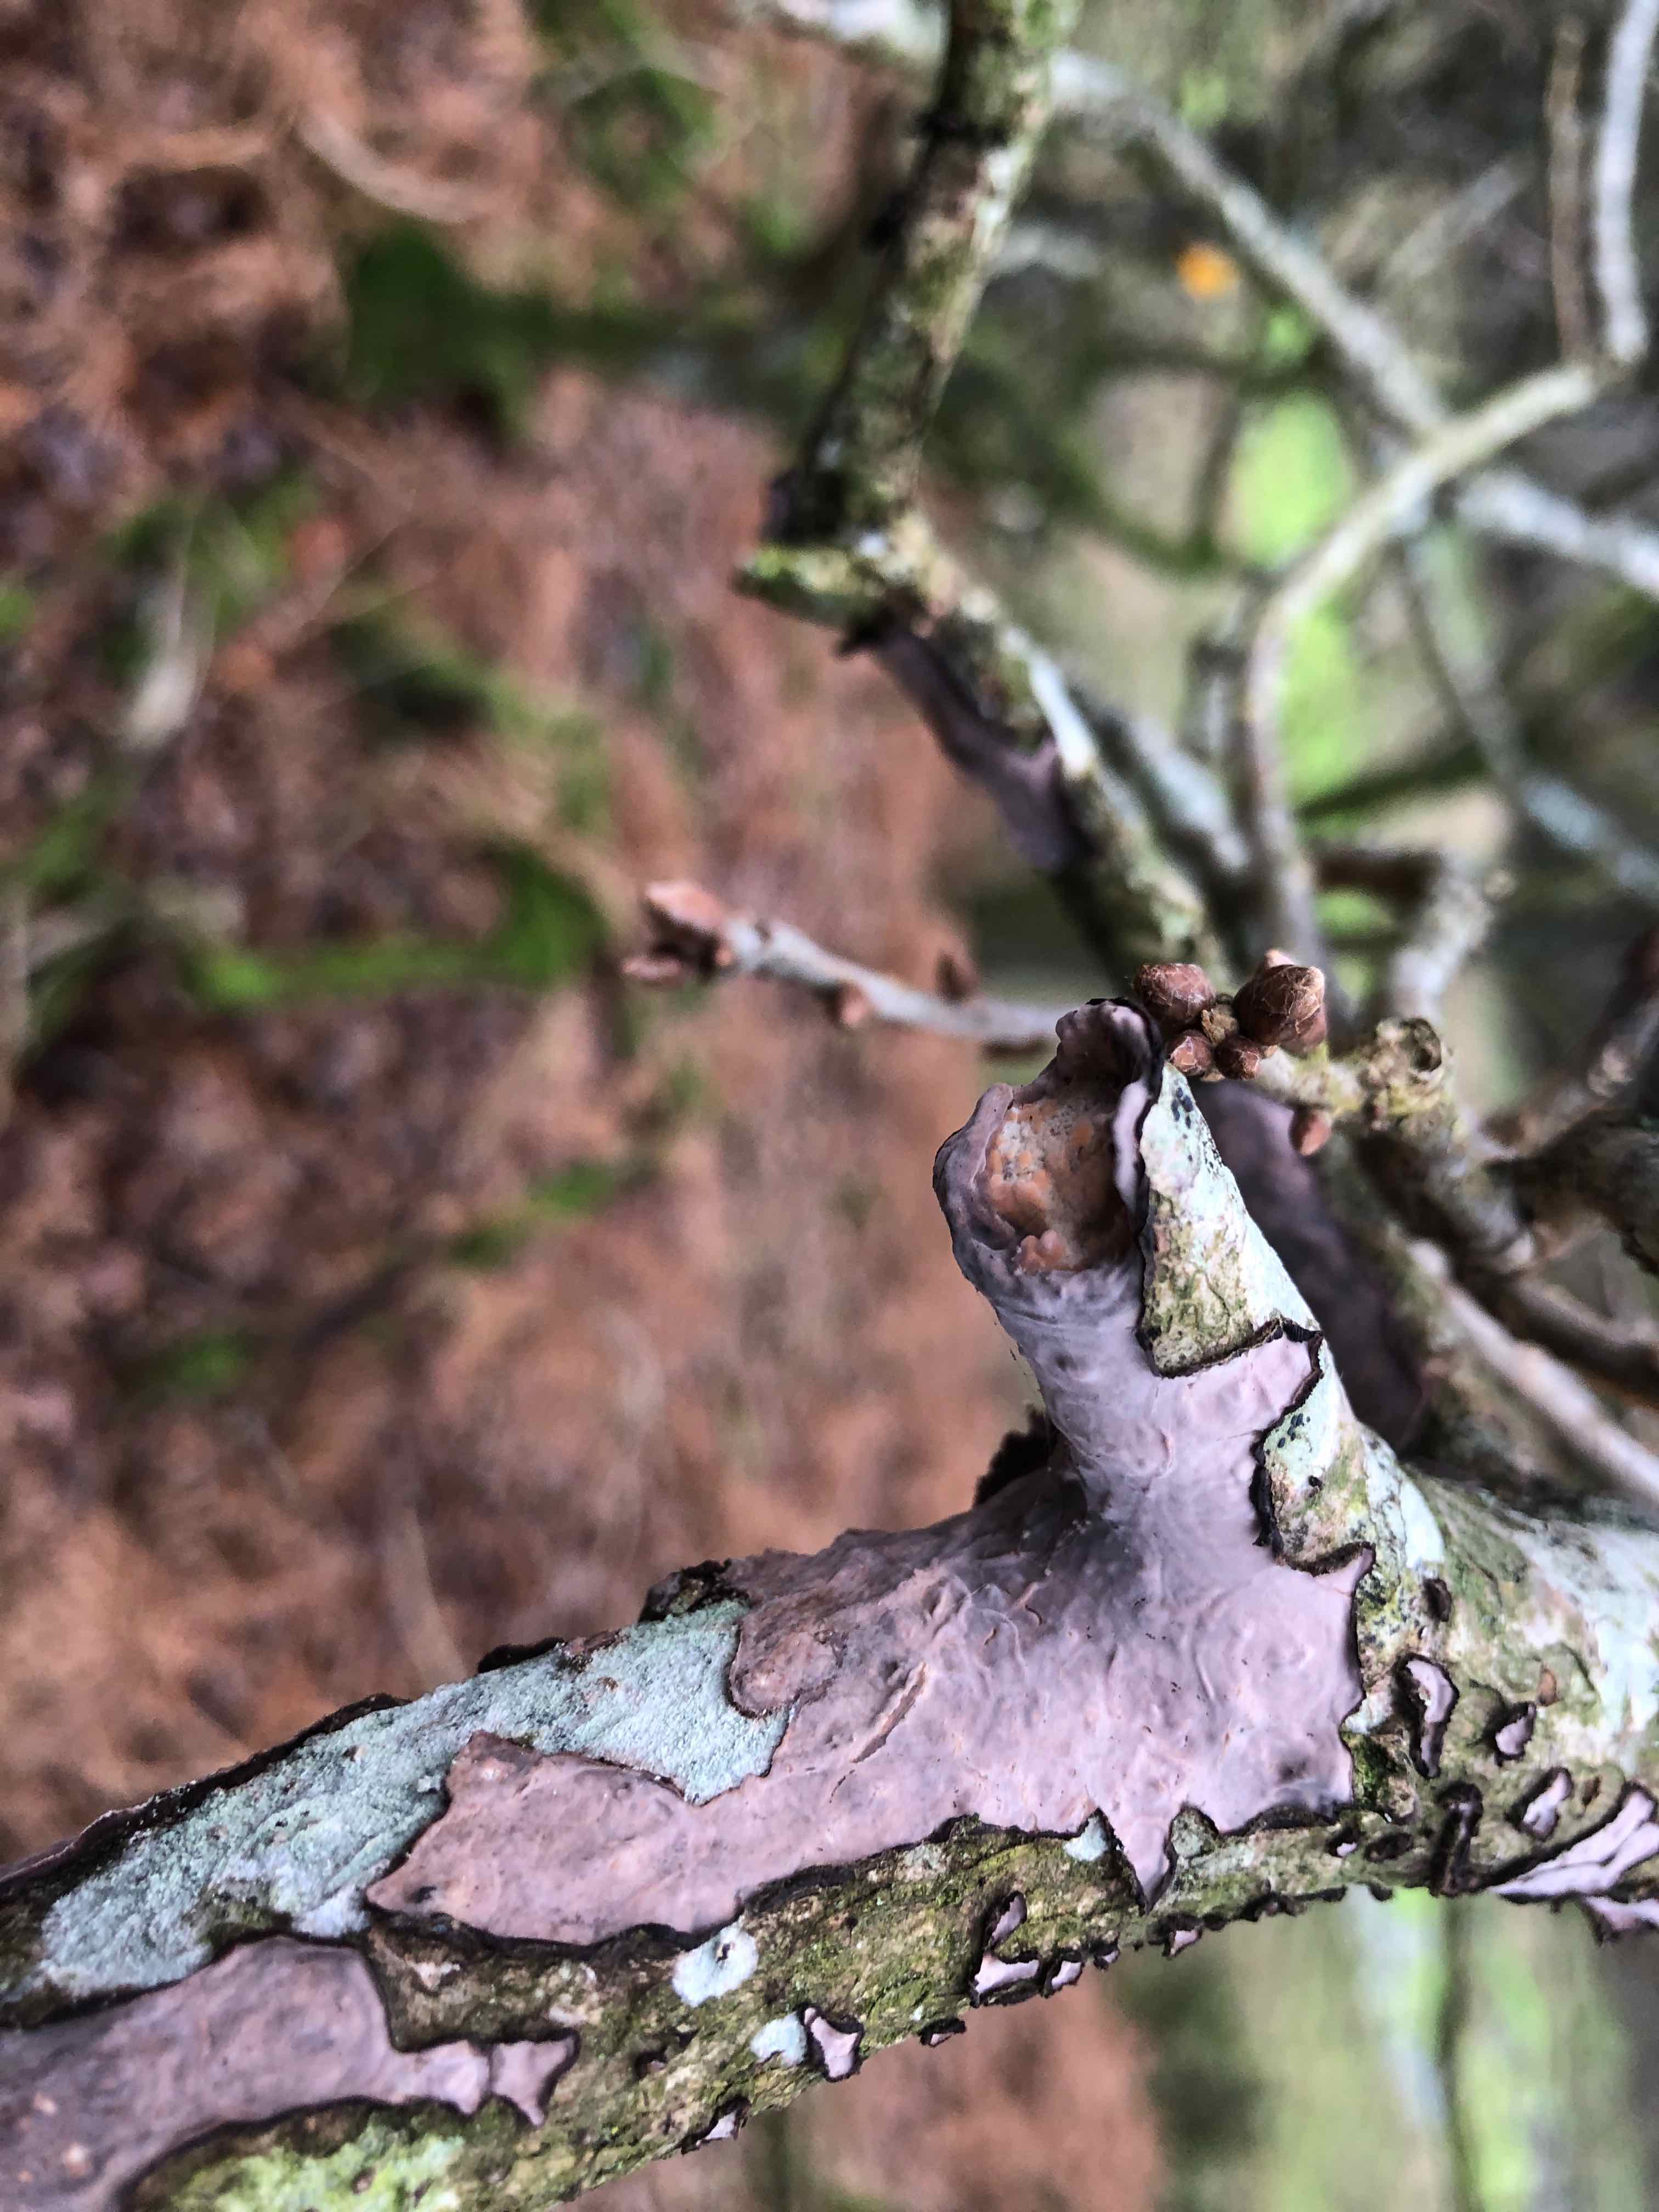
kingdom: Fungi
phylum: Basidiomycota
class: Agaricomycetes
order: Russulales
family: Peniophoraceae
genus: Peniophora
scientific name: Peniophora quercina
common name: ege-voksskind
